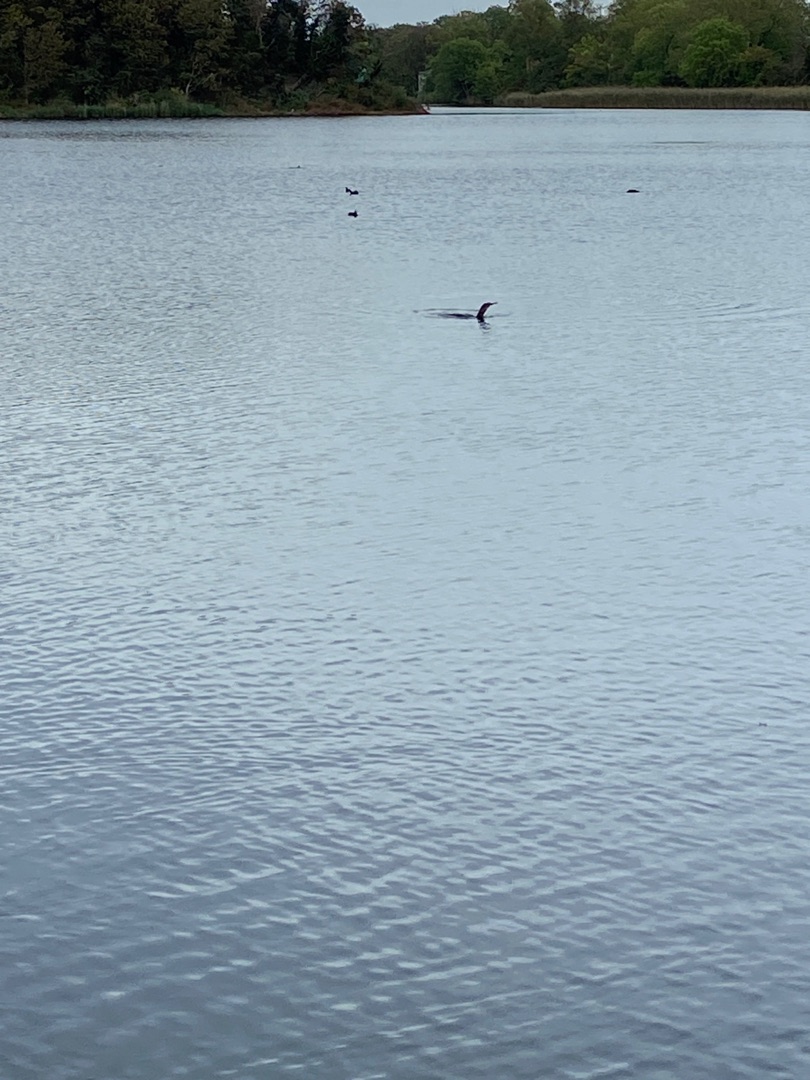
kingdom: Animalia
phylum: Chordata
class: Aves
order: Suliformes
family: Phalacrocoracidae
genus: Phalacrocorax
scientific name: Phalacrocorax carbo
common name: Skarv
